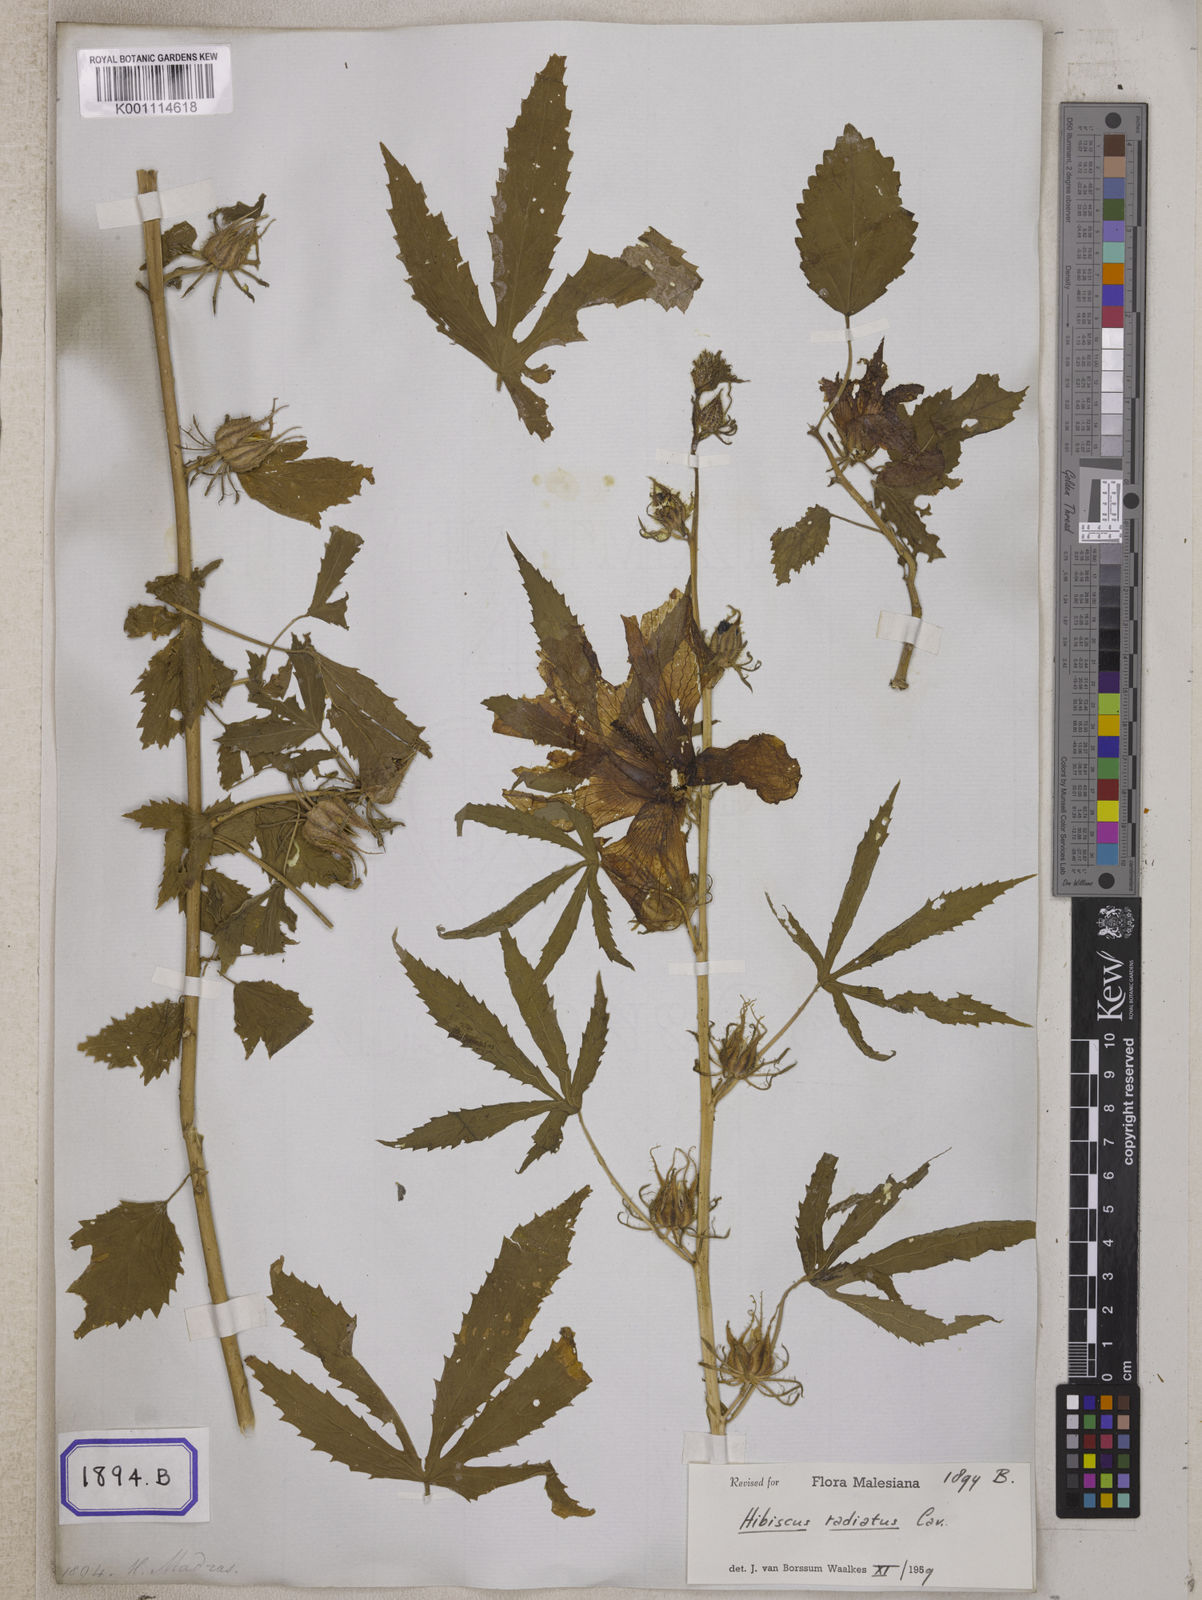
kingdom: Plantae
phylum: Tracheophyta
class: Magnoliopsida
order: Malvales
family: Malvaceae
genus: Hibiscus
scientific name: Hibiscus radiatus
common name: Monarch rosemallow
